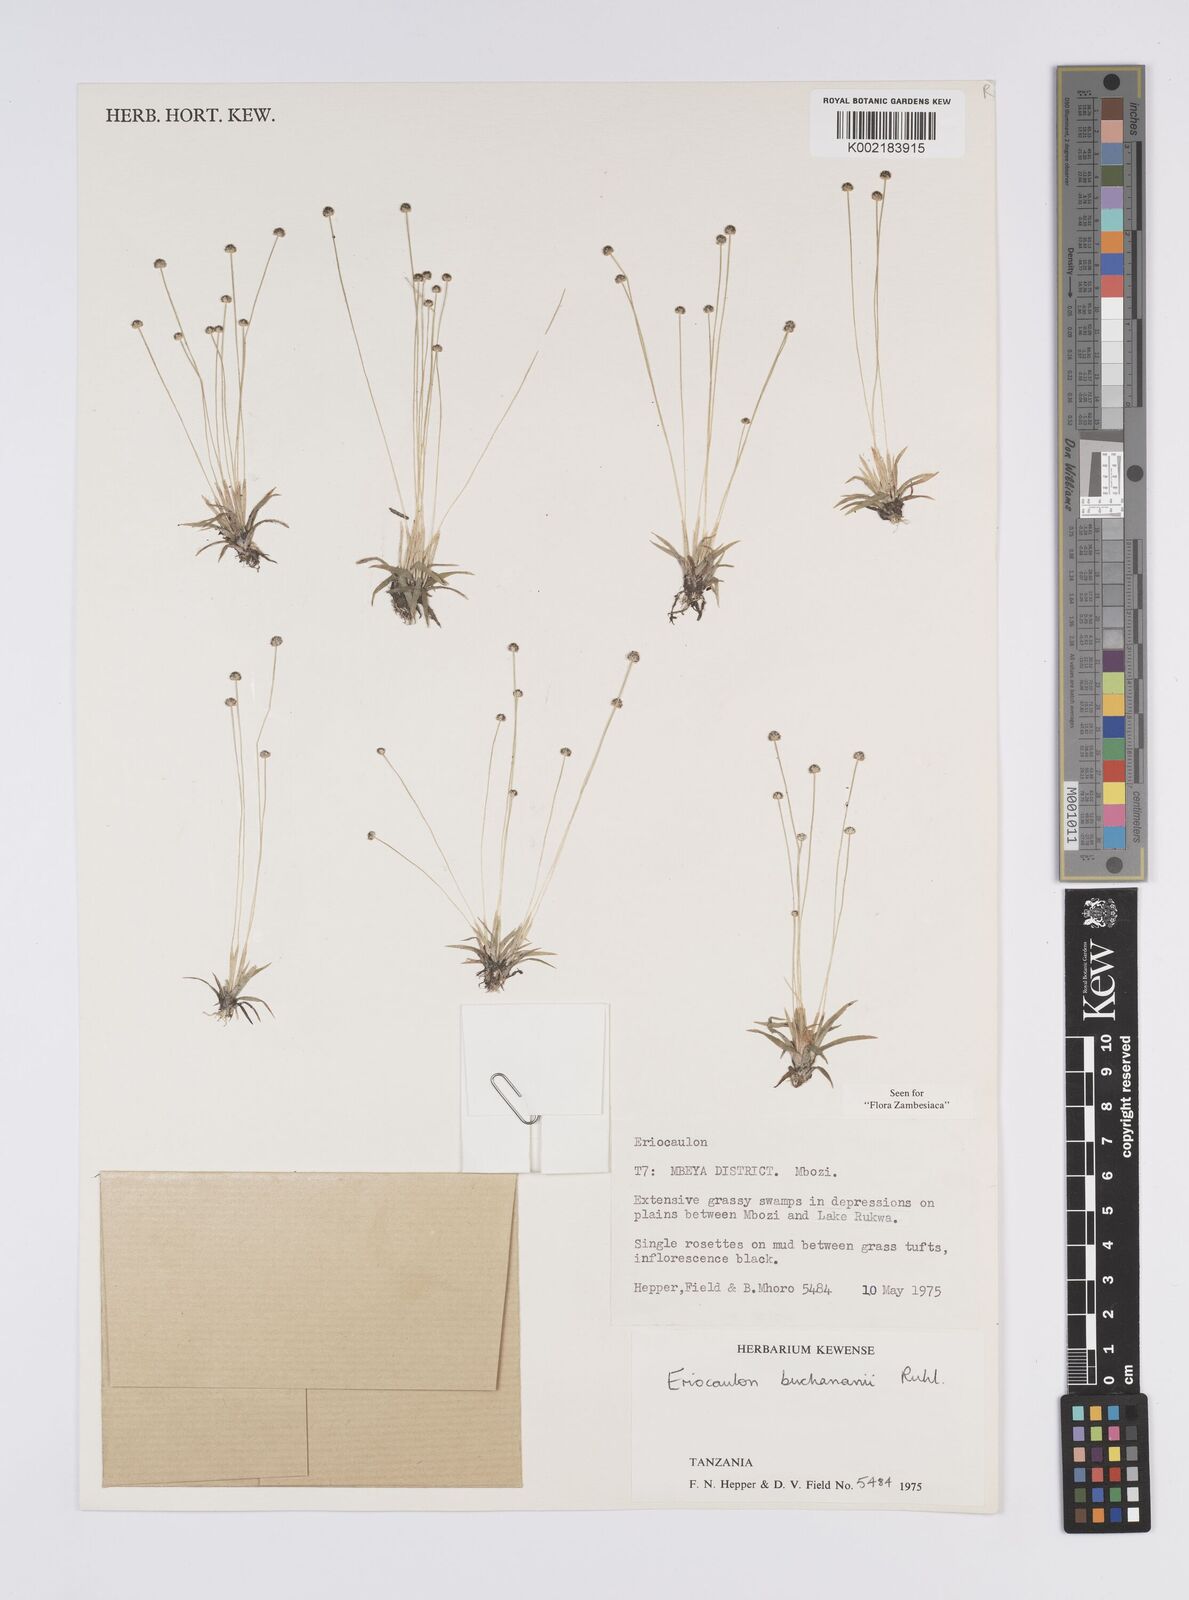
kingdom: Plantae
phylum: Tracheophyta
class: Liliopsida
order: Poales
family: Eriocaulaceae
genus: Eriocaulon
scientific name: Eriocaulon buchananii
